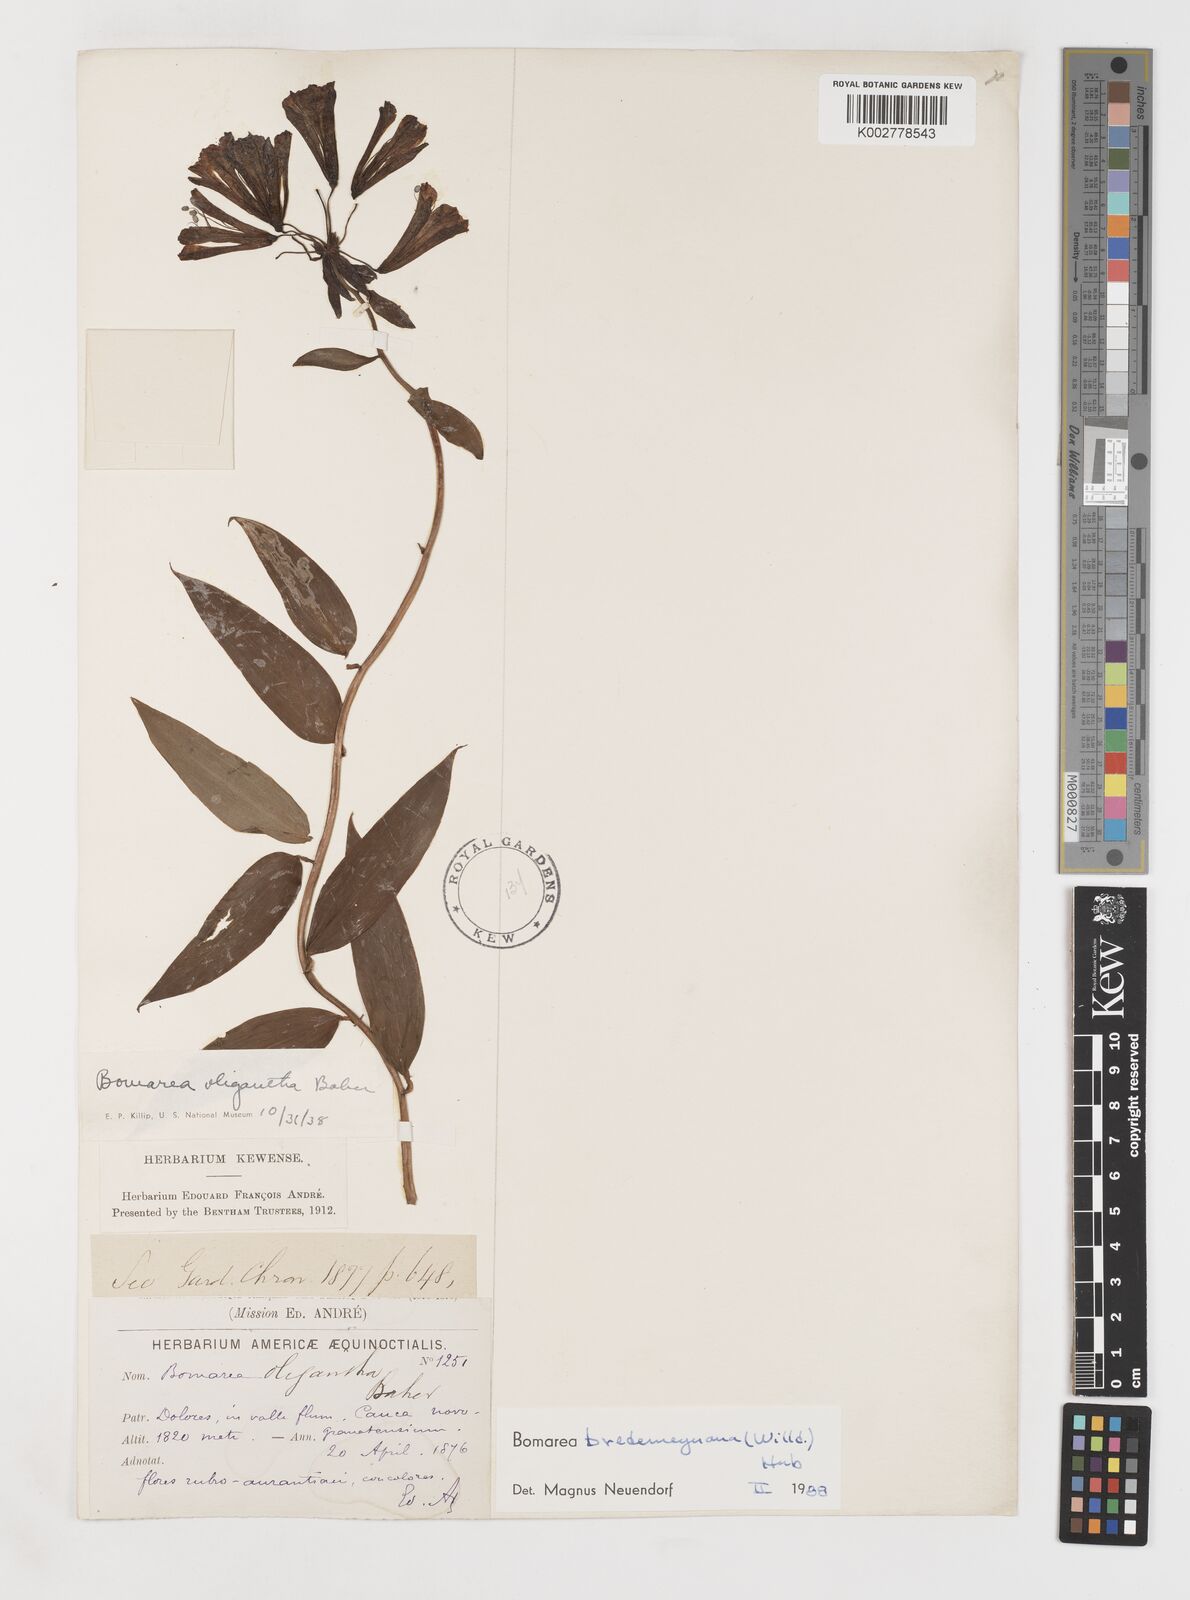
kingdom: Plantae
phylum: Tracheophyta
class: Liliopsida
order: Liliales
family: Alstroemeriaceae
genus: Bomarea
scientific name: Bomarea bredemeyeriana
